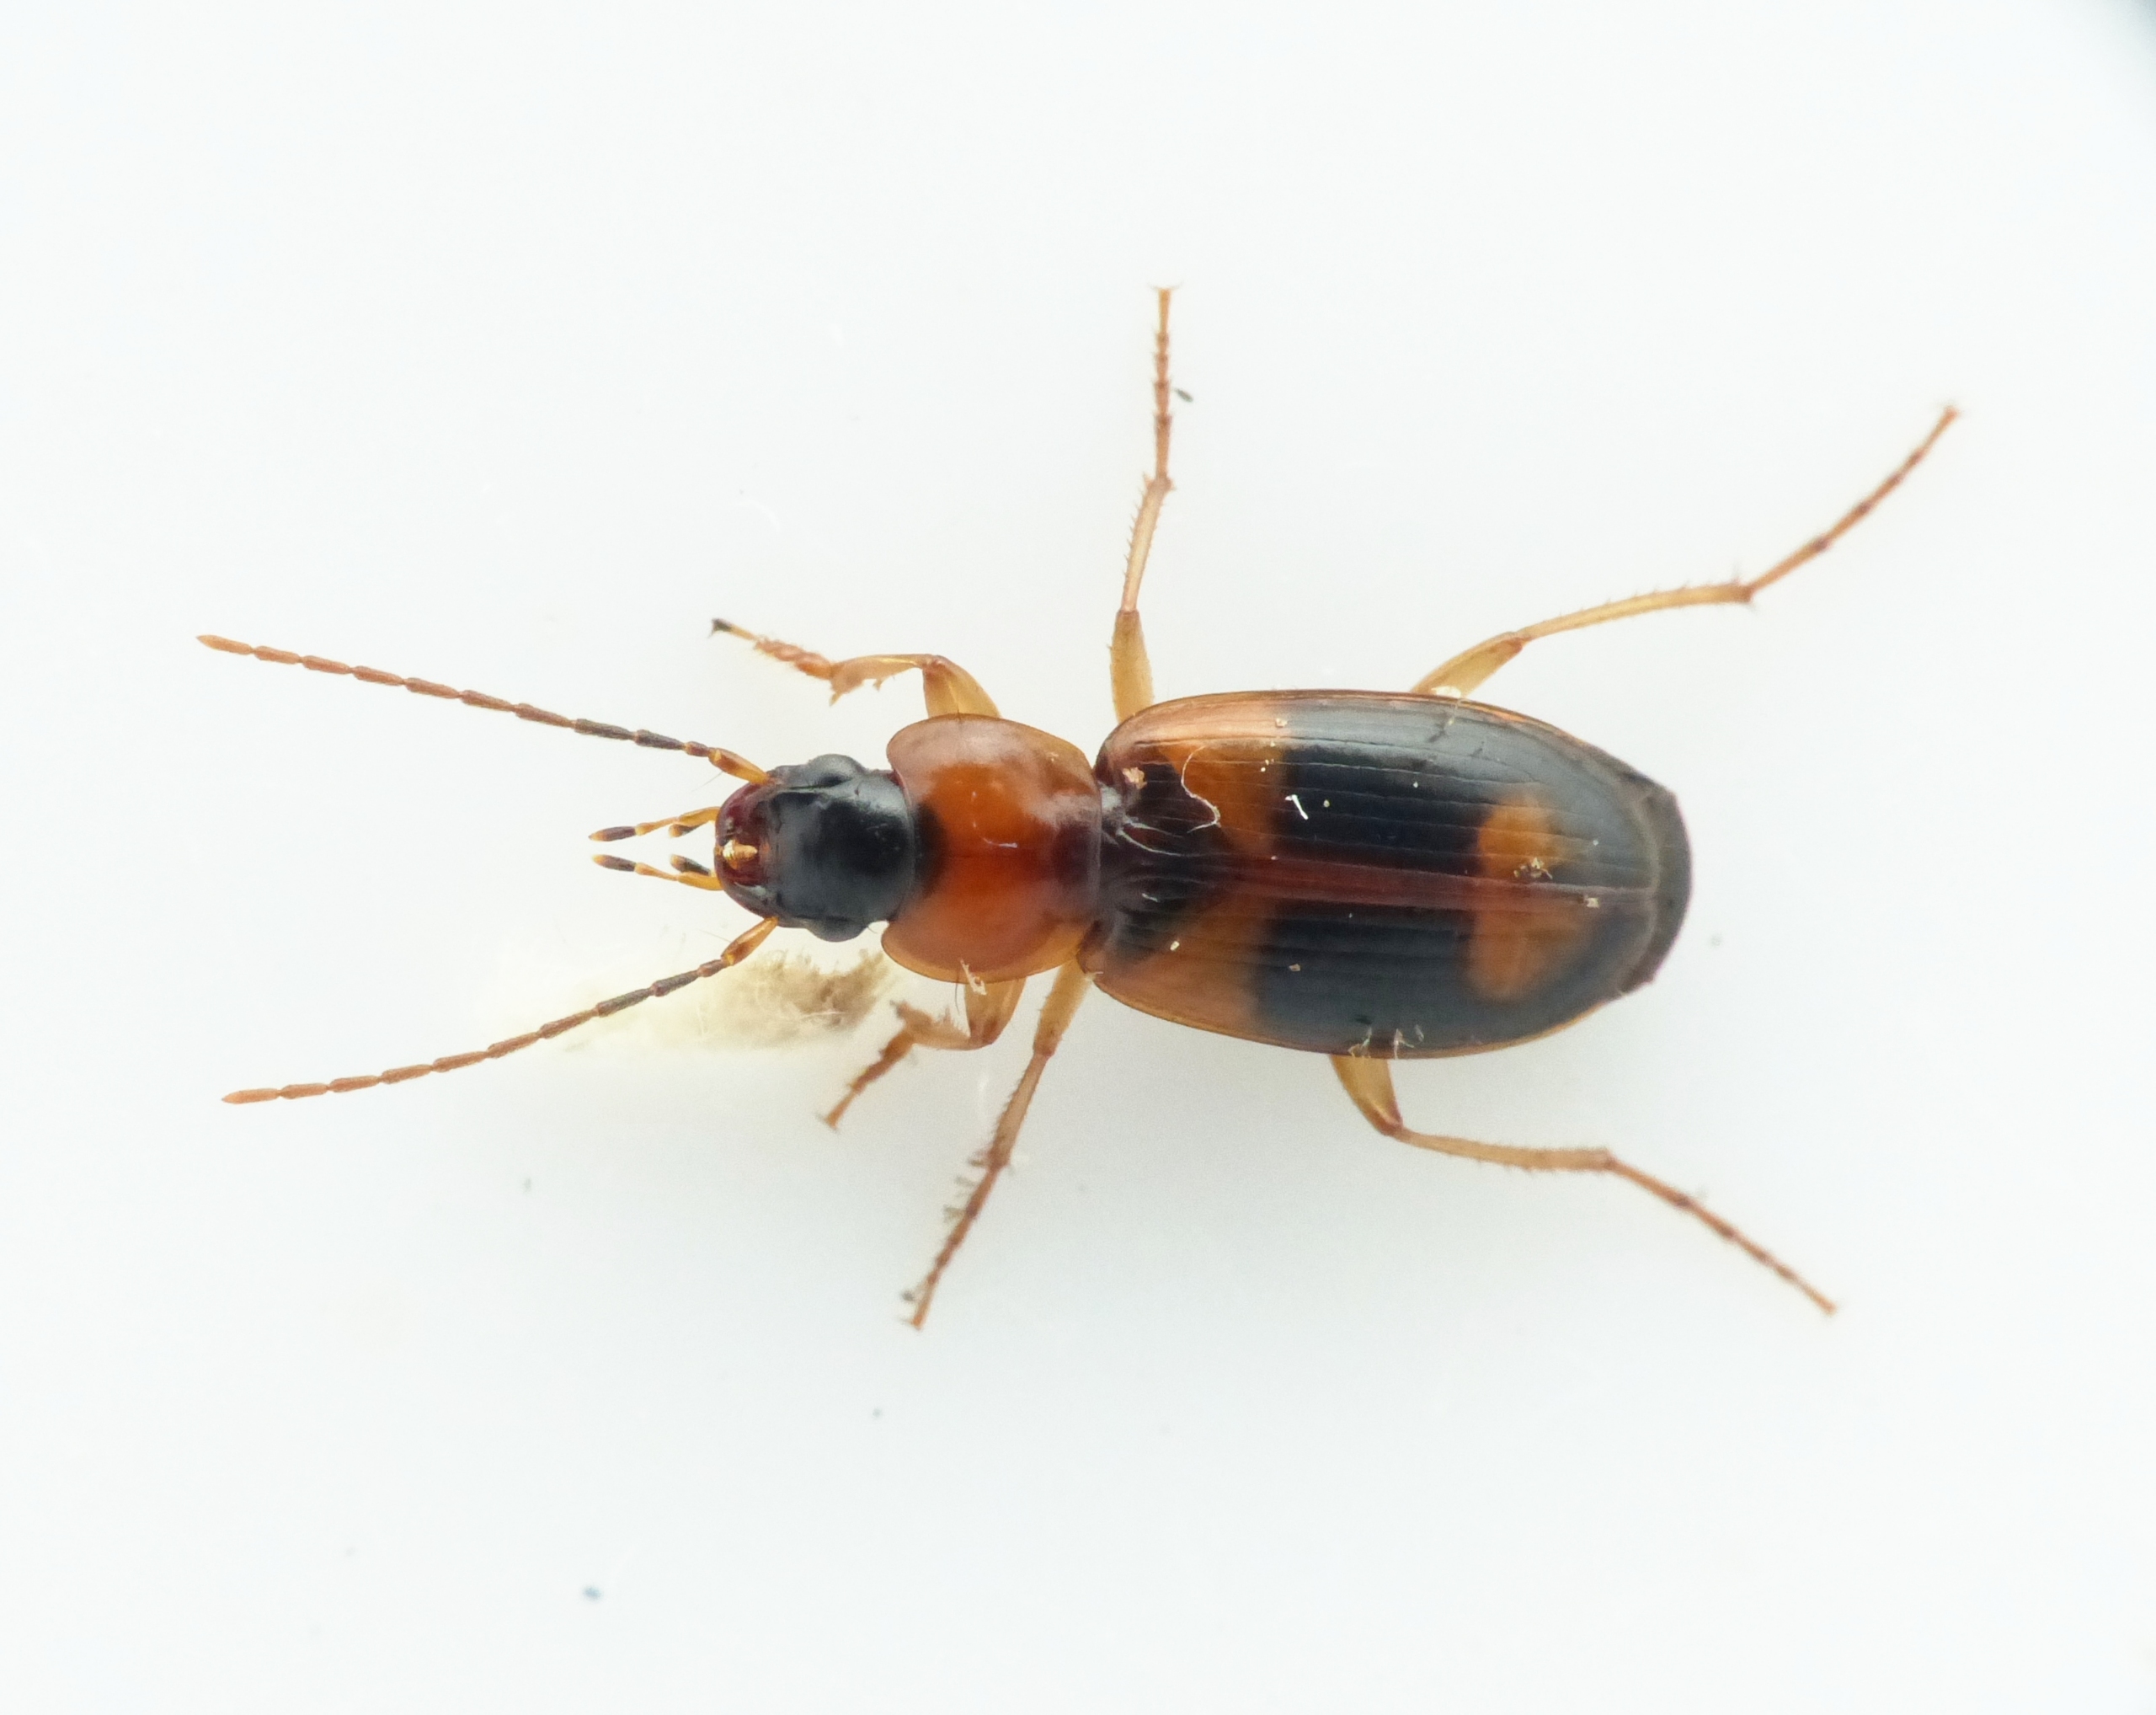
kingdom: Animalia
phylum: Arthropoda
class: Insecta
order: Coleoptera
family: Carabidae
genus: Badister
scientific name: Badister lacertosus
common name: Broget sumpløber
